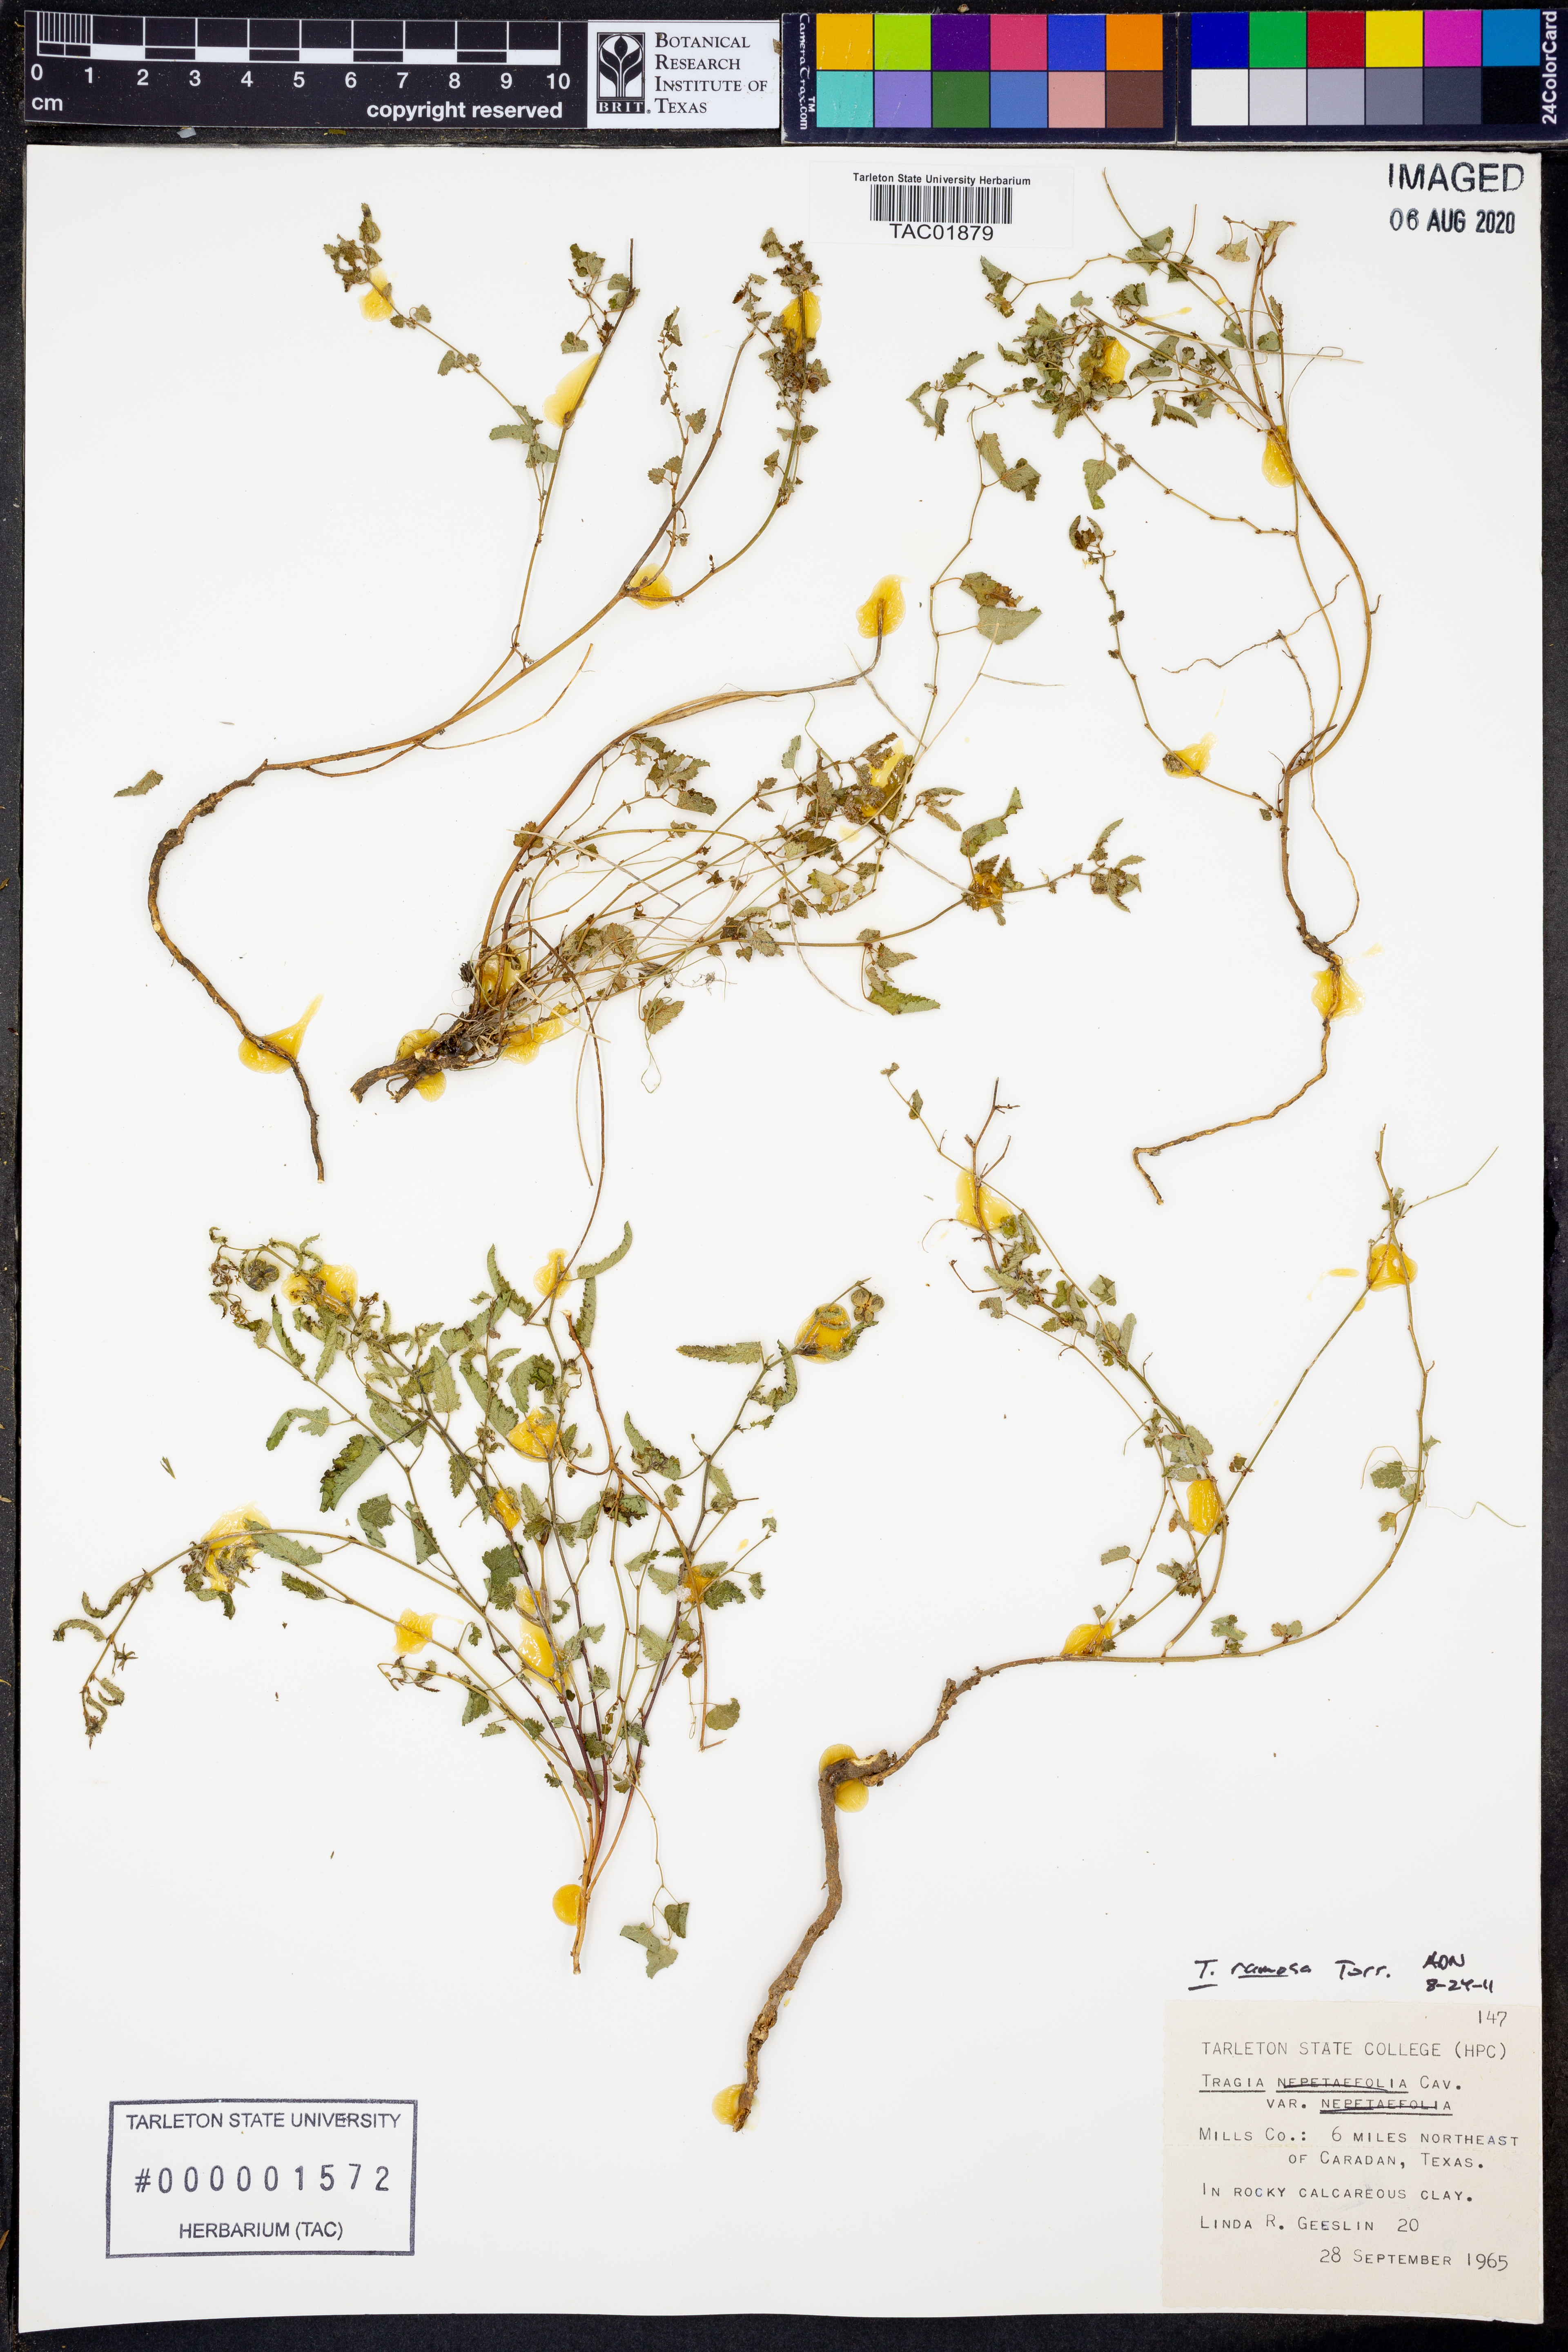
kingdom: Plantae
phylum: Tracheophyta
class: Magnoliopsida
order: Malpighiales
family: Euphorbiaceae
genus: Tragia
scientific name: Tragia bahiensis
